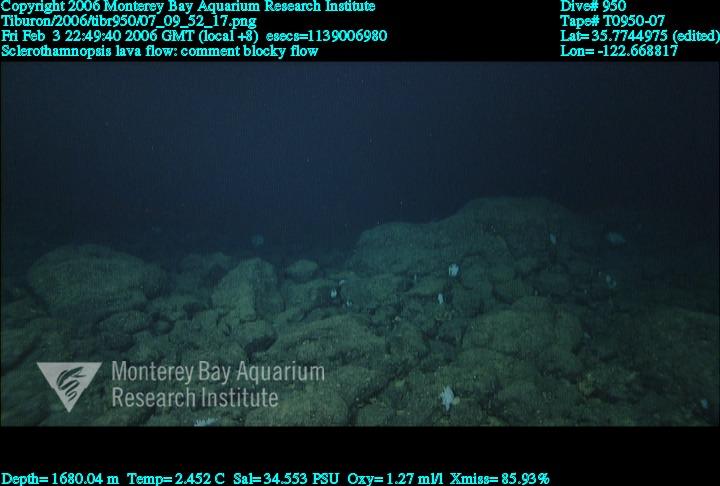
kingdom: Animalia
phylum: Porifera
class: Hexactinellida
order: Sceptrulophora
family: Tretodictyidae
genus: Sclerothamnopsis
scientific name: Sclerothamnopsis
